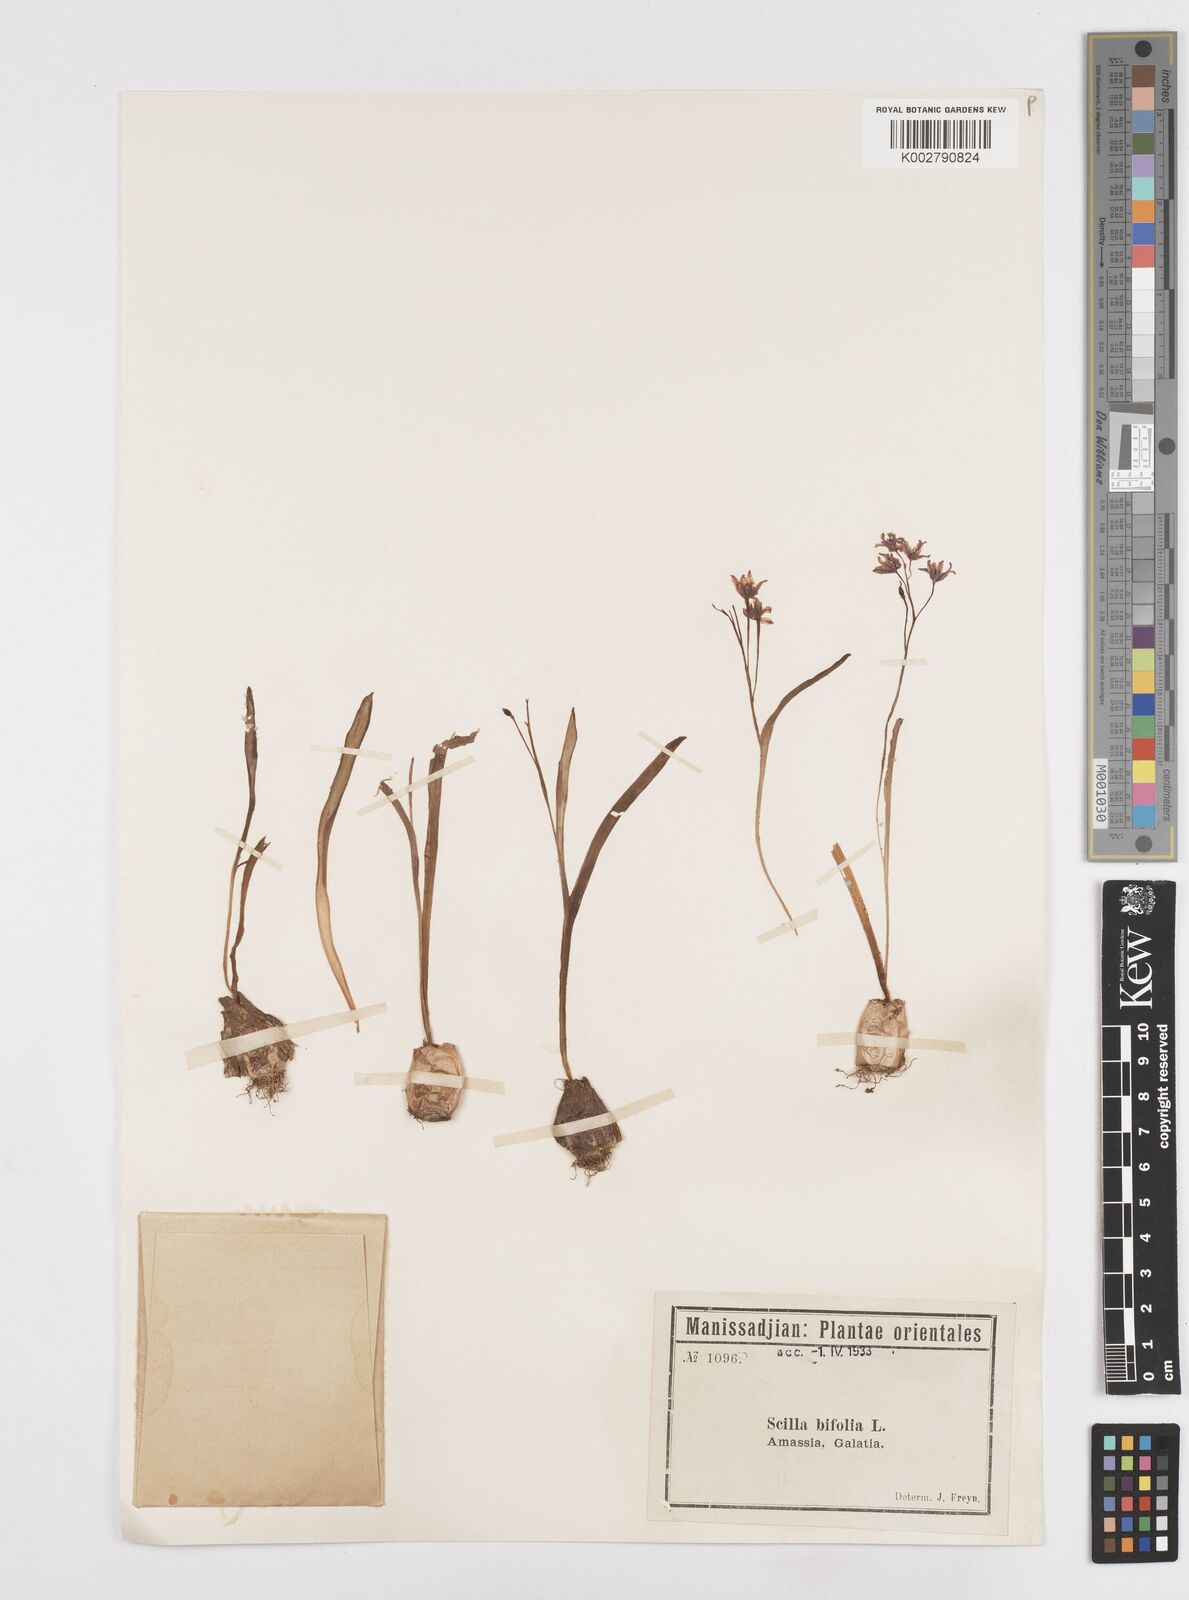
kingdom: Plantae
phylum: Tracheophyta
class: Liliopsida
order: Asparagales
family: Asparagaceae
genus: Scilla
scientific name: Scilla bifolia
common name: Alpine squill
